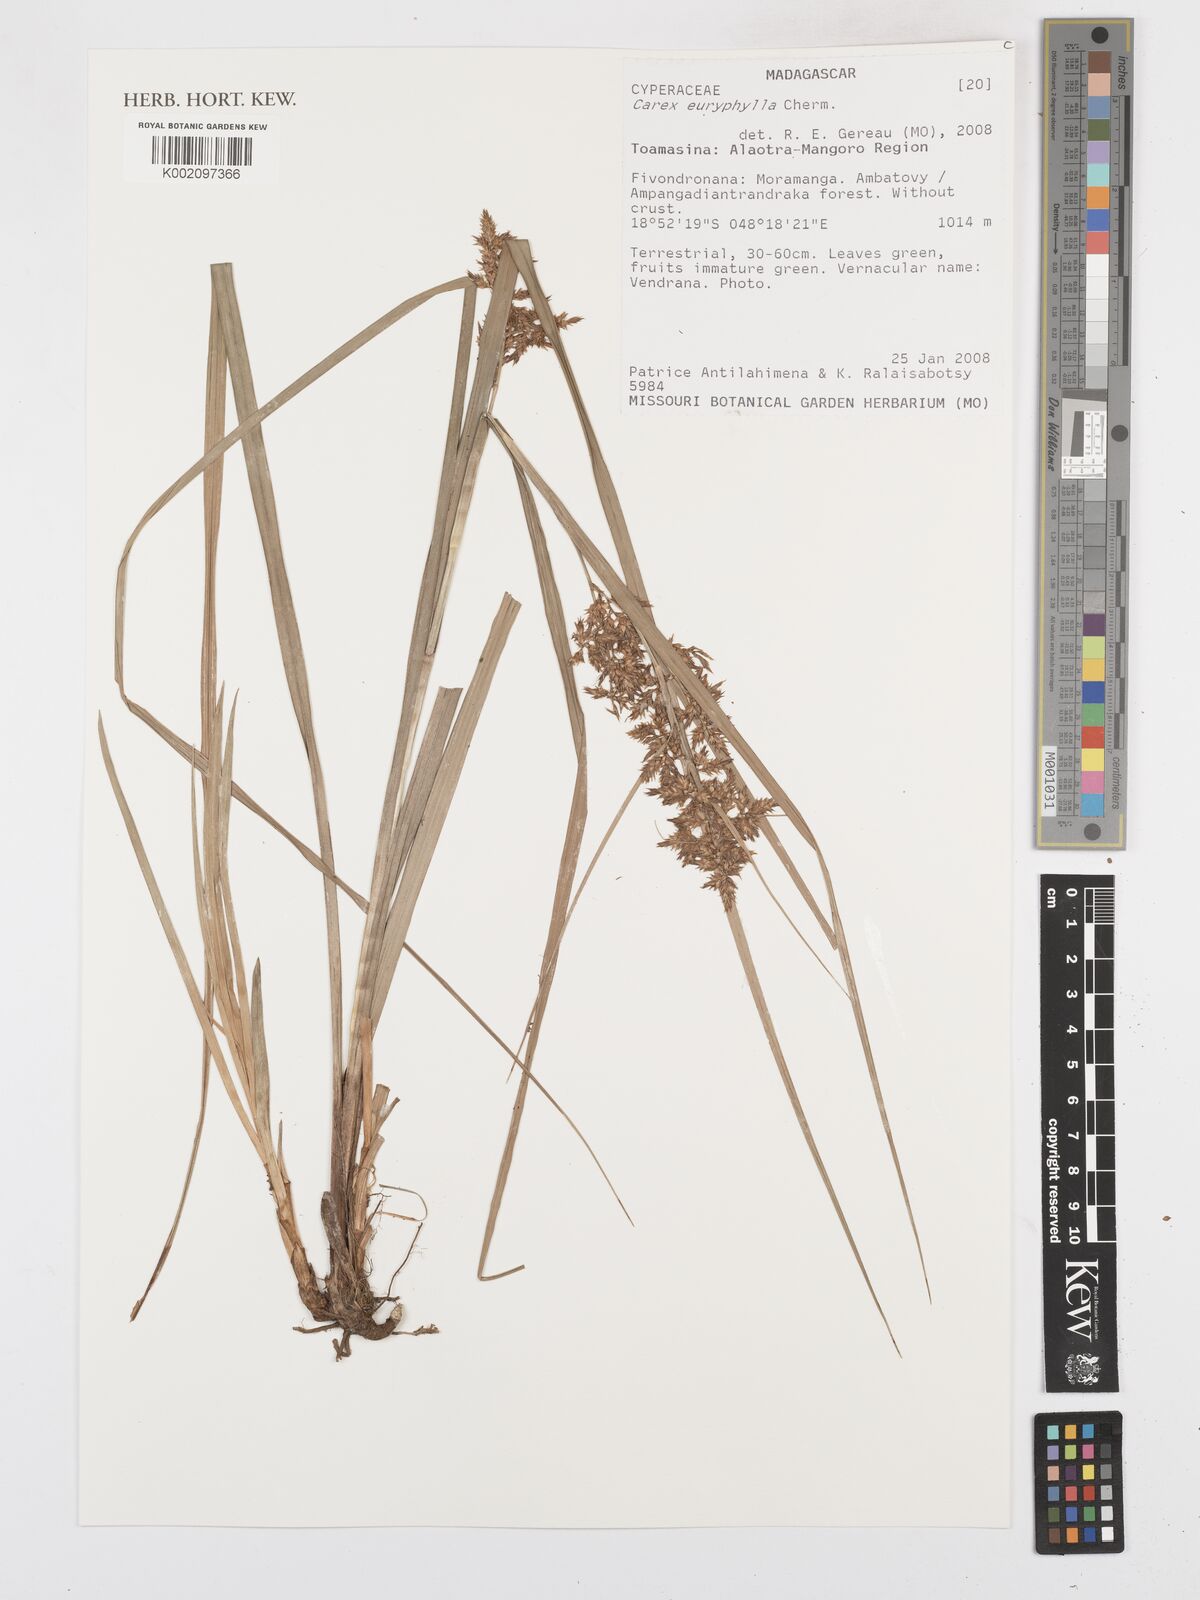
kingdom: Plantae
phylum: Tracheophyta
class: Liliopsida
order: Poales
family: Cyperaceae
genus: Carex
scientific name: Carex haematosaccus
